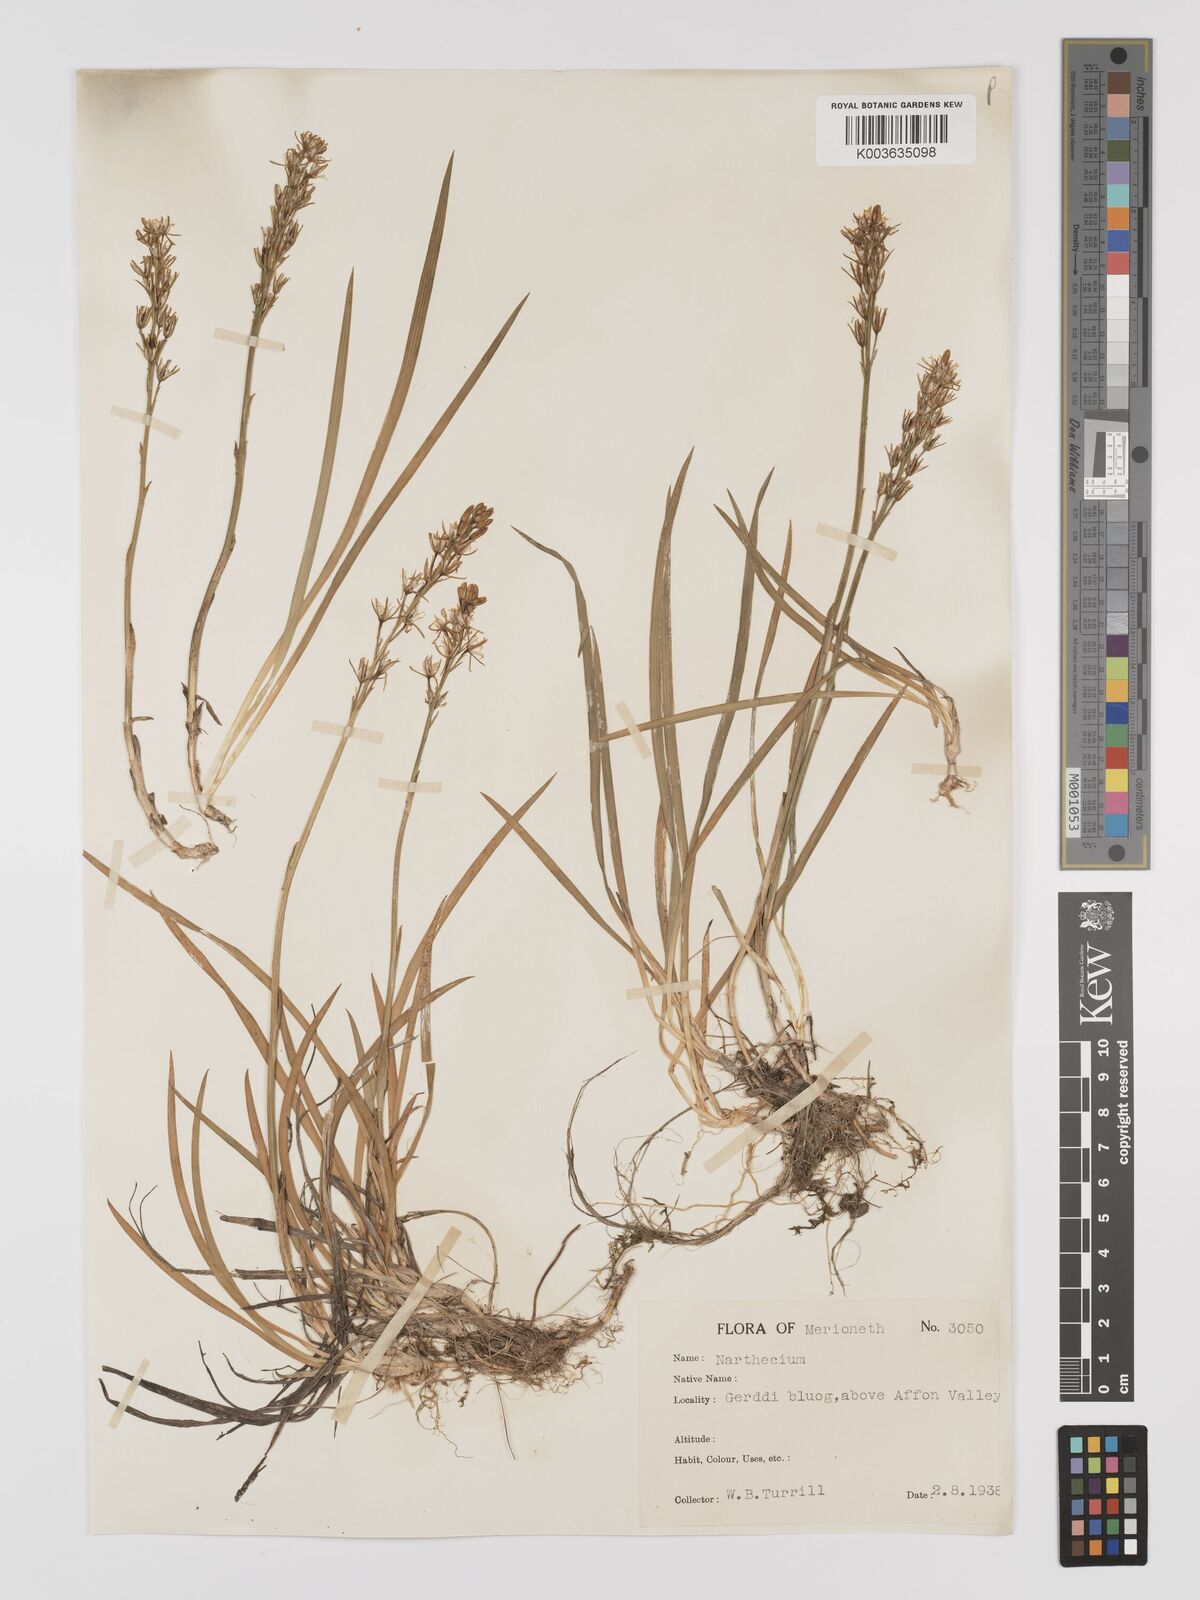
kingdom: Plantae
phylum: Tracheophyta
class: Liliopsida
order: Dioscoreales
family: Nartheciaceae
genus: Narthecium
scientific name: Narthecium
